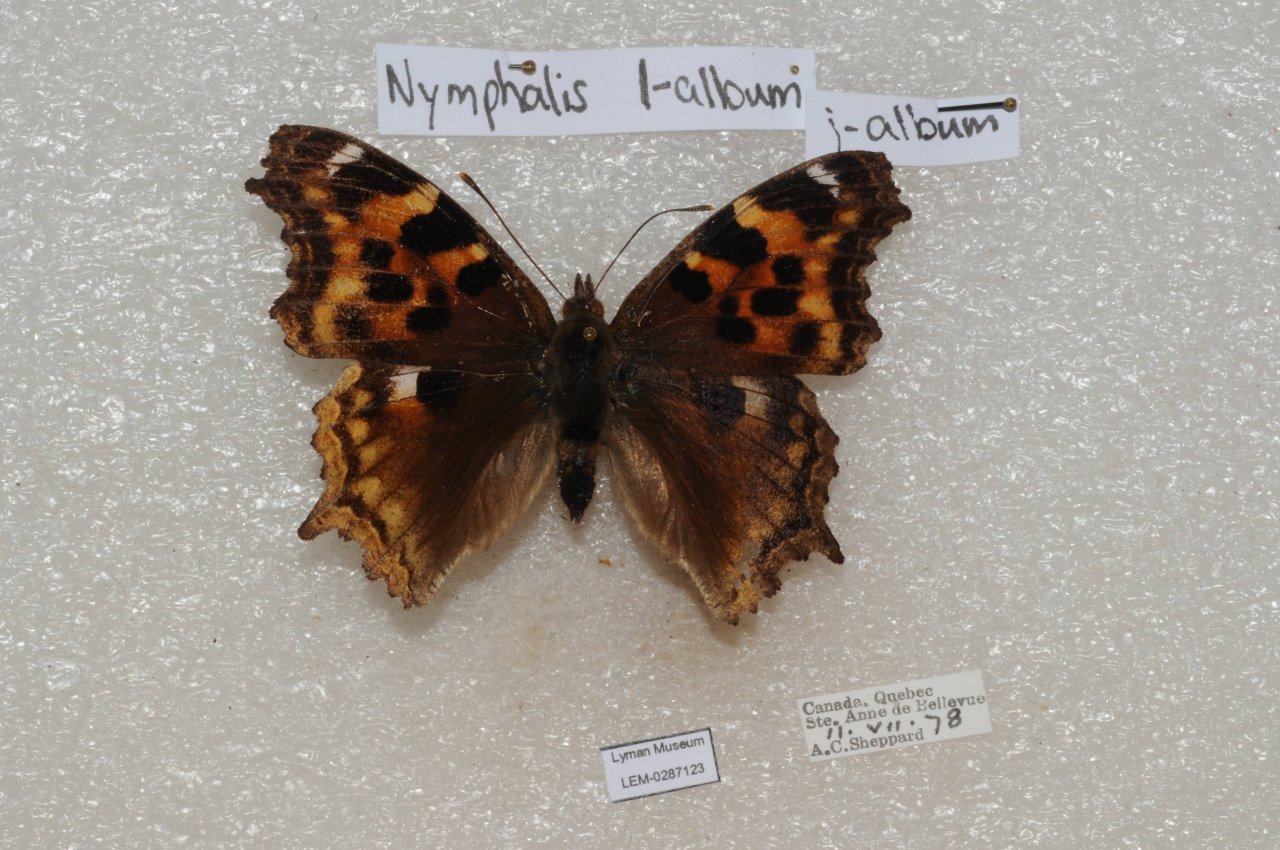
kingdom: Animalia
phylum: Arthropoda
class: Insecta
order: Lepidoptera
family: Nymphalidae
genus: Polygonia
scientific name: Polygonia vaualbum
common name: Compton Tortoiseshell
